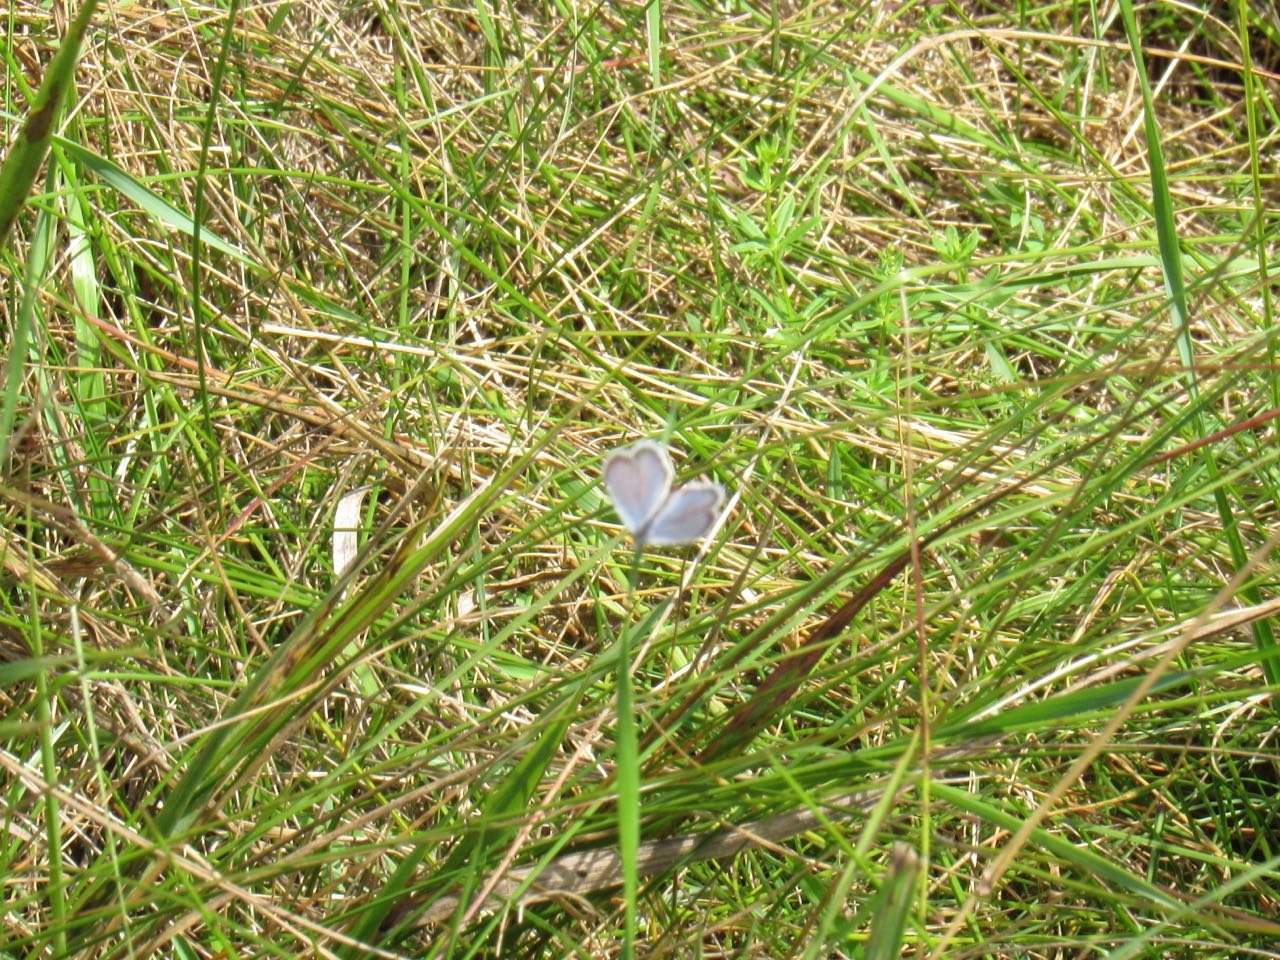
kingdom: Animalia
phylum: Arthropoda
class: Insecta
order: Lepidoptera
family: Lycaenidae
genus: Elkalyce
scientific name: Elkalyce comyntas
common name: Eastern Tailed-Blue
